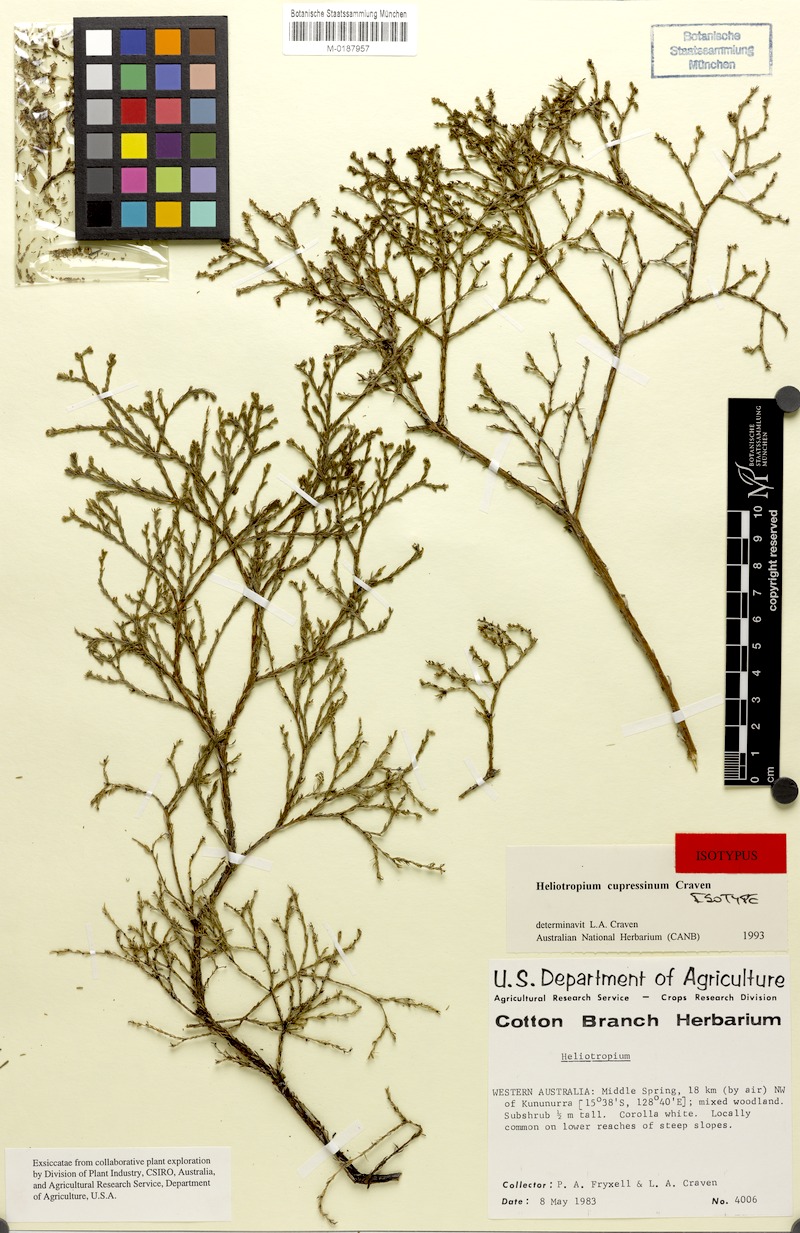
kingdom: Plantae
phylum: Tracheophyta
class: Magnoliopsida
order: Boraginales
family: Heliotropiaceae
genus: Euploca
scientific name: Euploca cupressina
